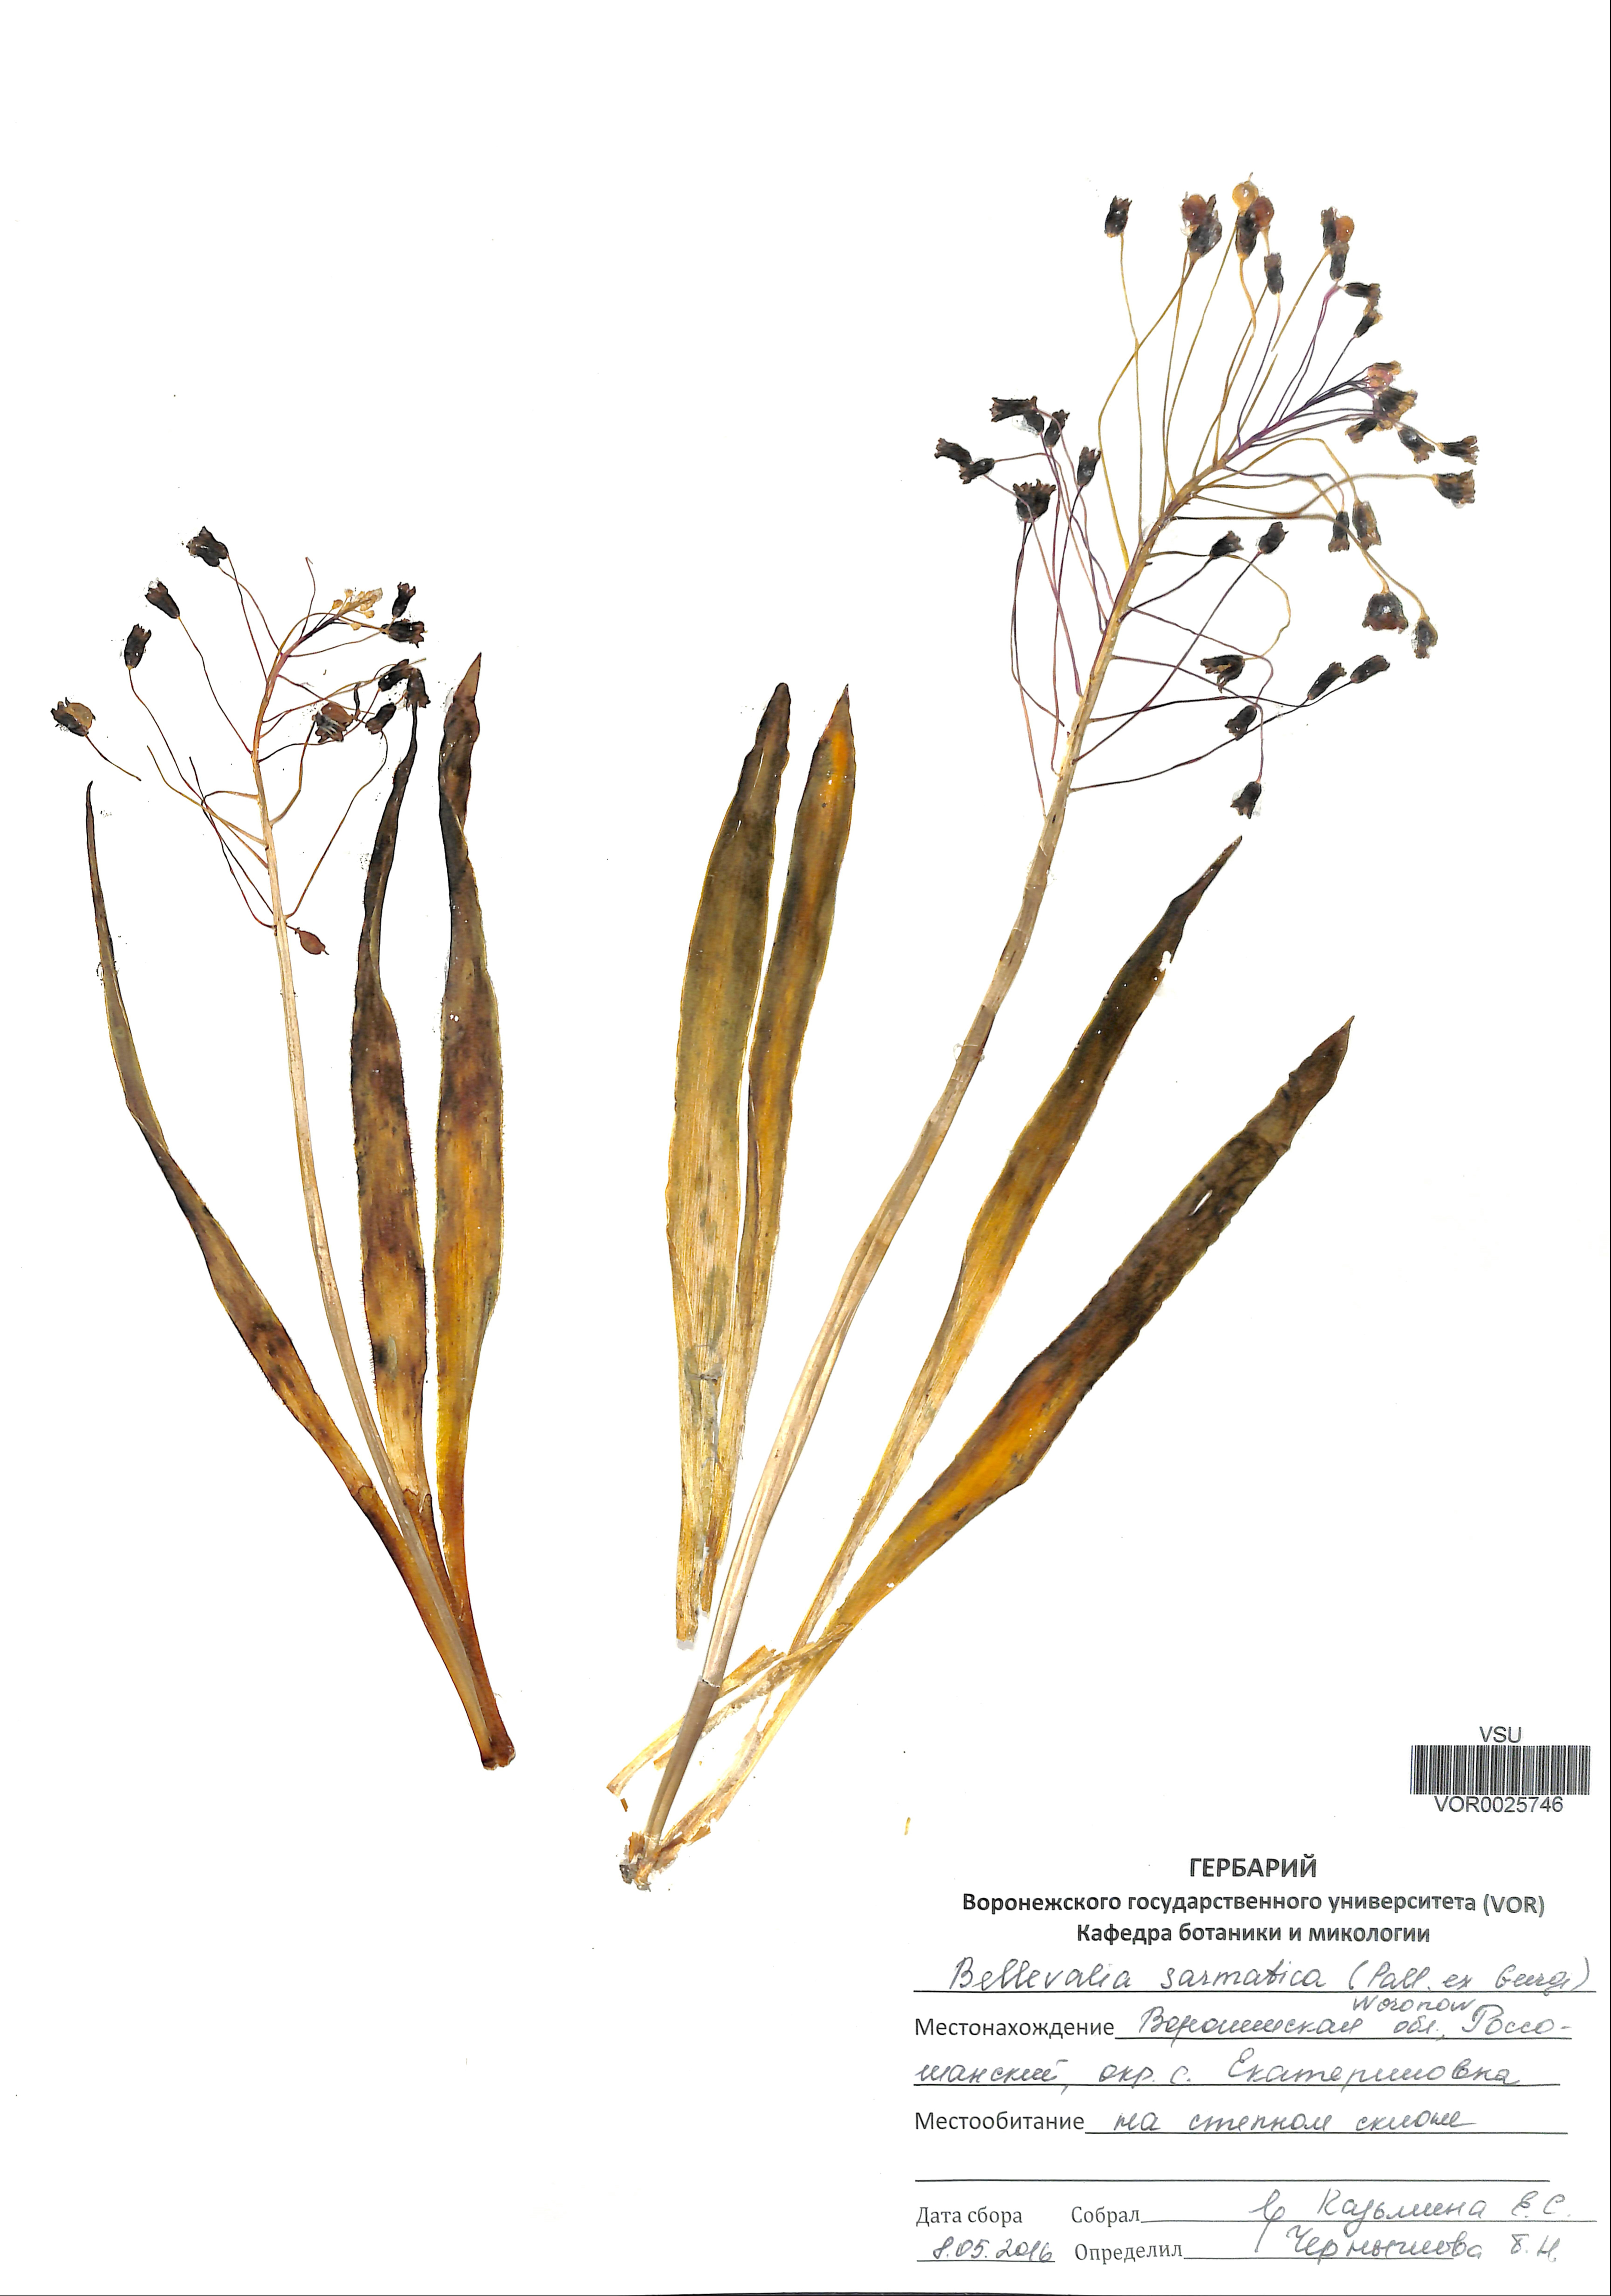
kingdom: Plantae
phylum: Tracheophyta
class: Liliopsida
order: Asparagales
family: Asparagaceae
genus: Bellevalia
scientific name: Bellevalia speciosa
